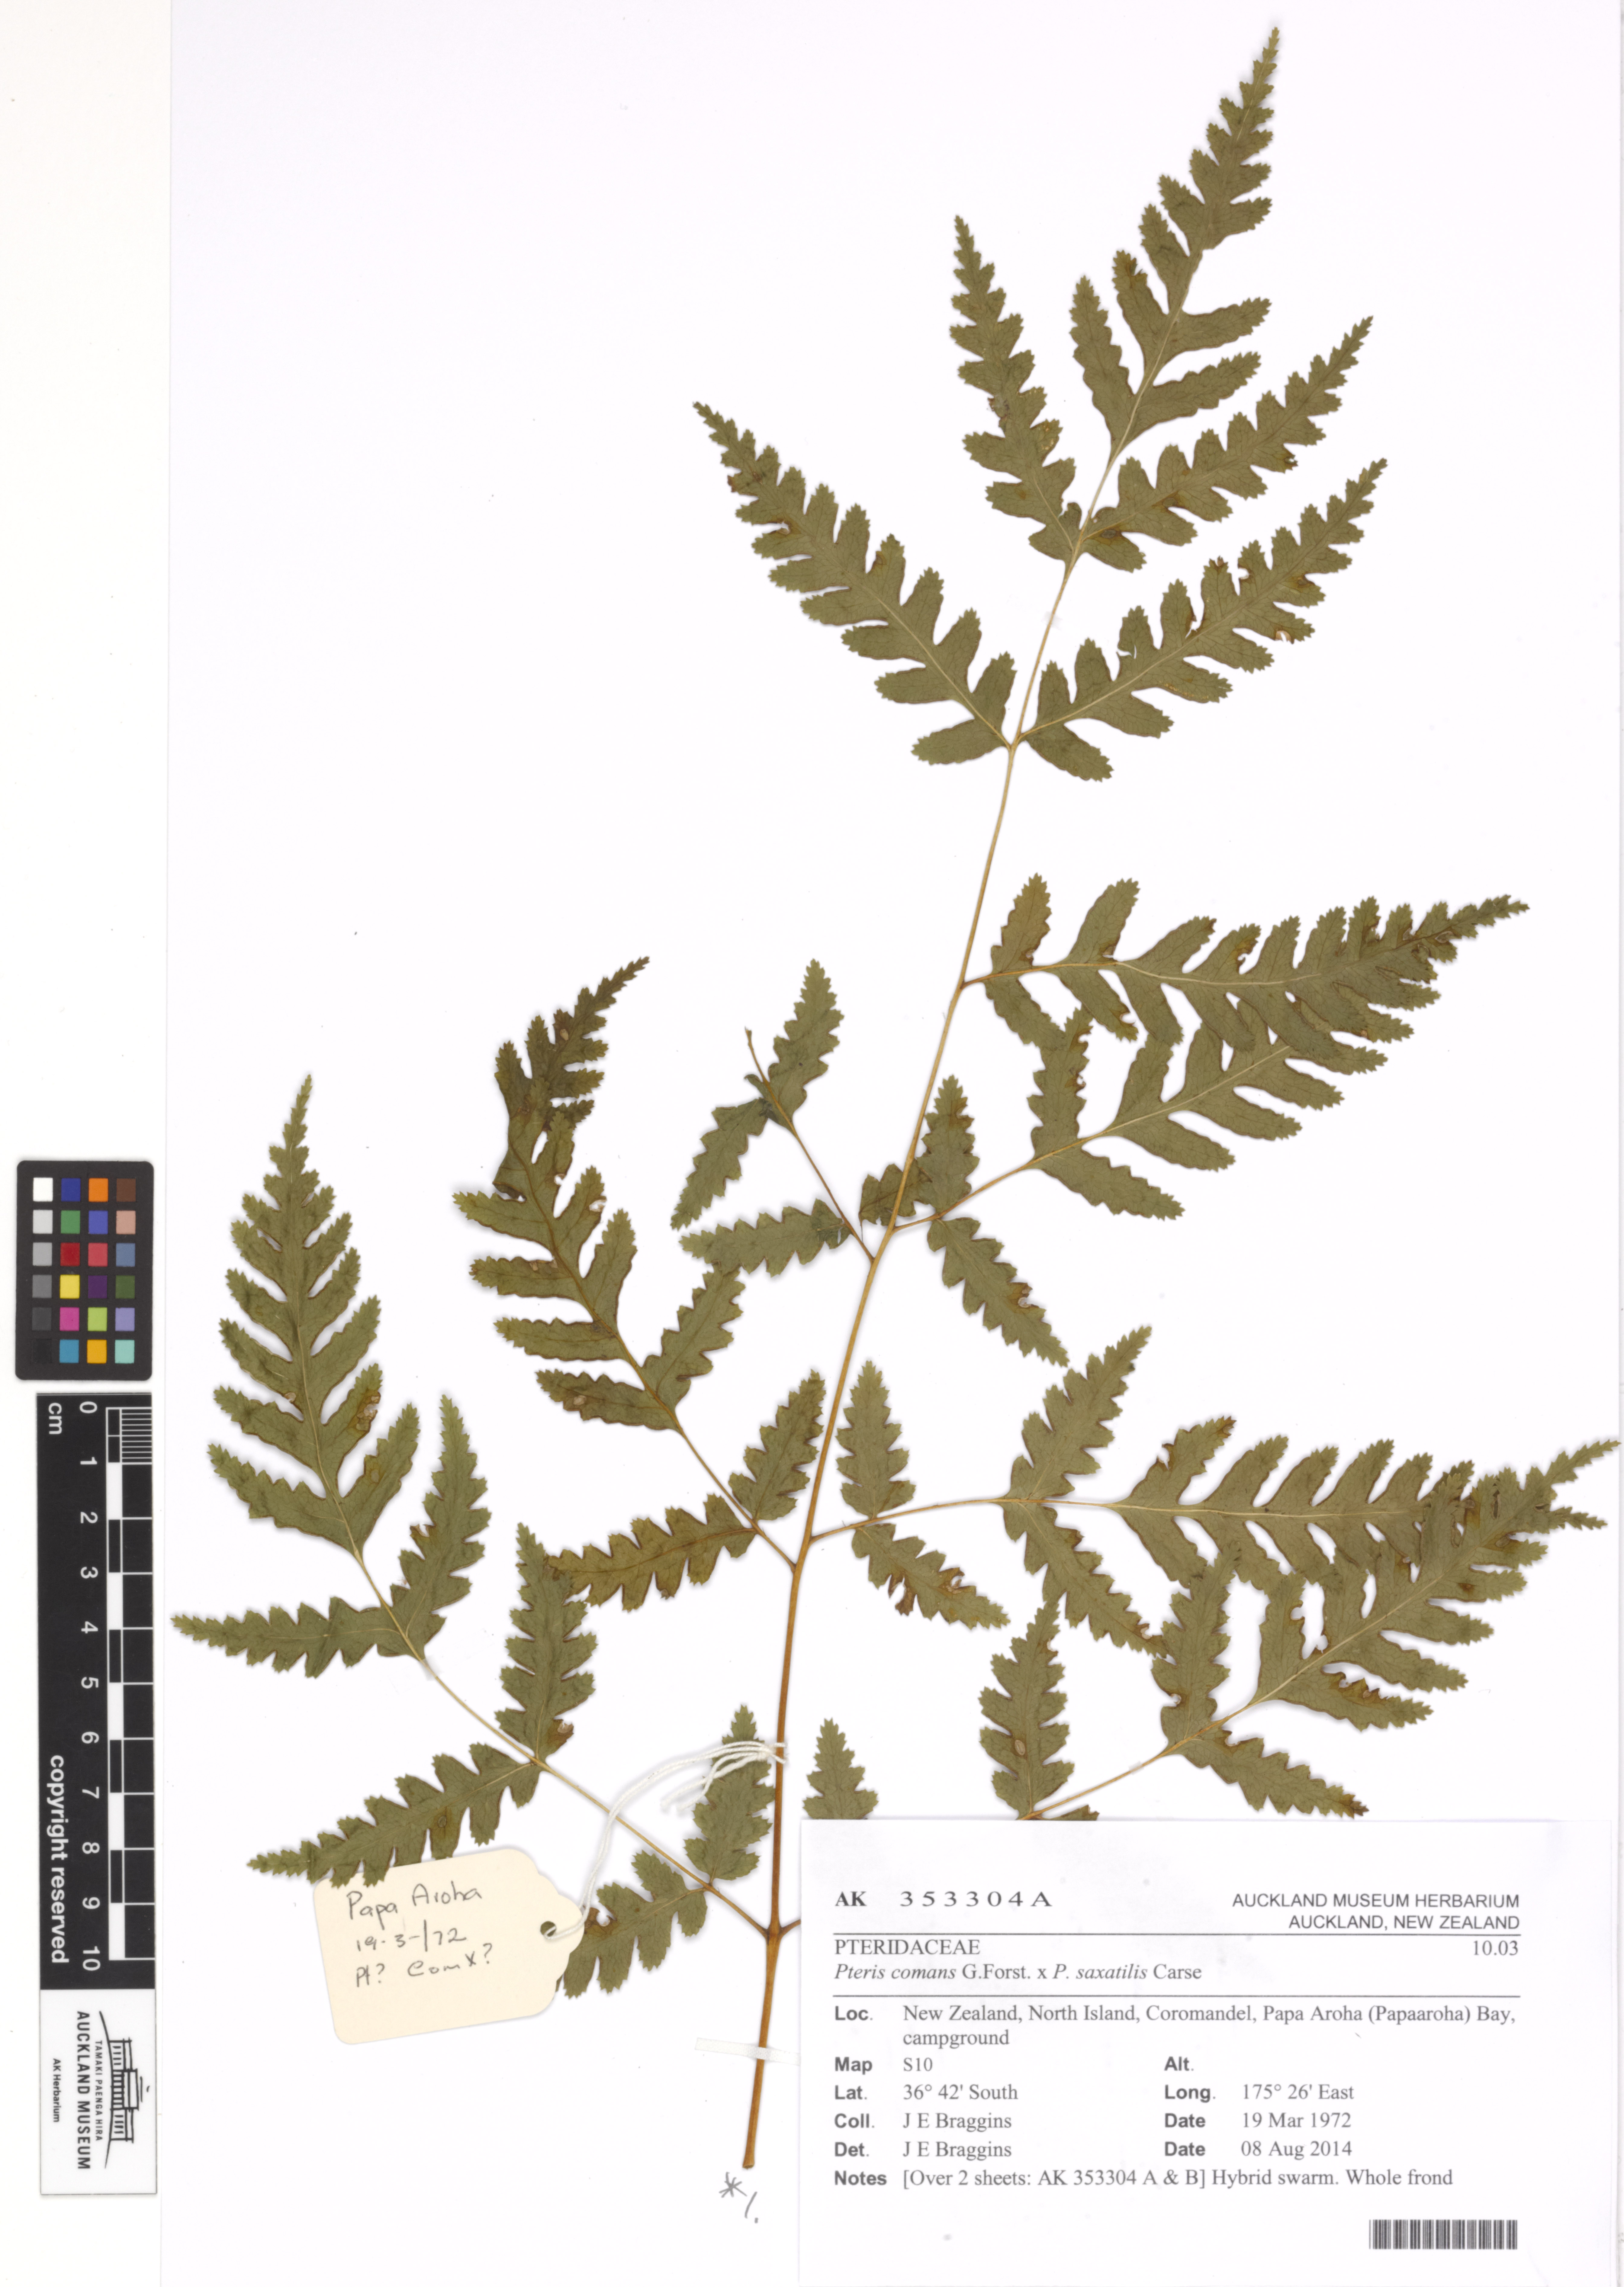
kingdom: Plantae
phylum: Tracheophyta
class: Polypodiopsida
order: Polypodiales
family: Pteridaceae
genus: Pteris
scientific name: Pteris
